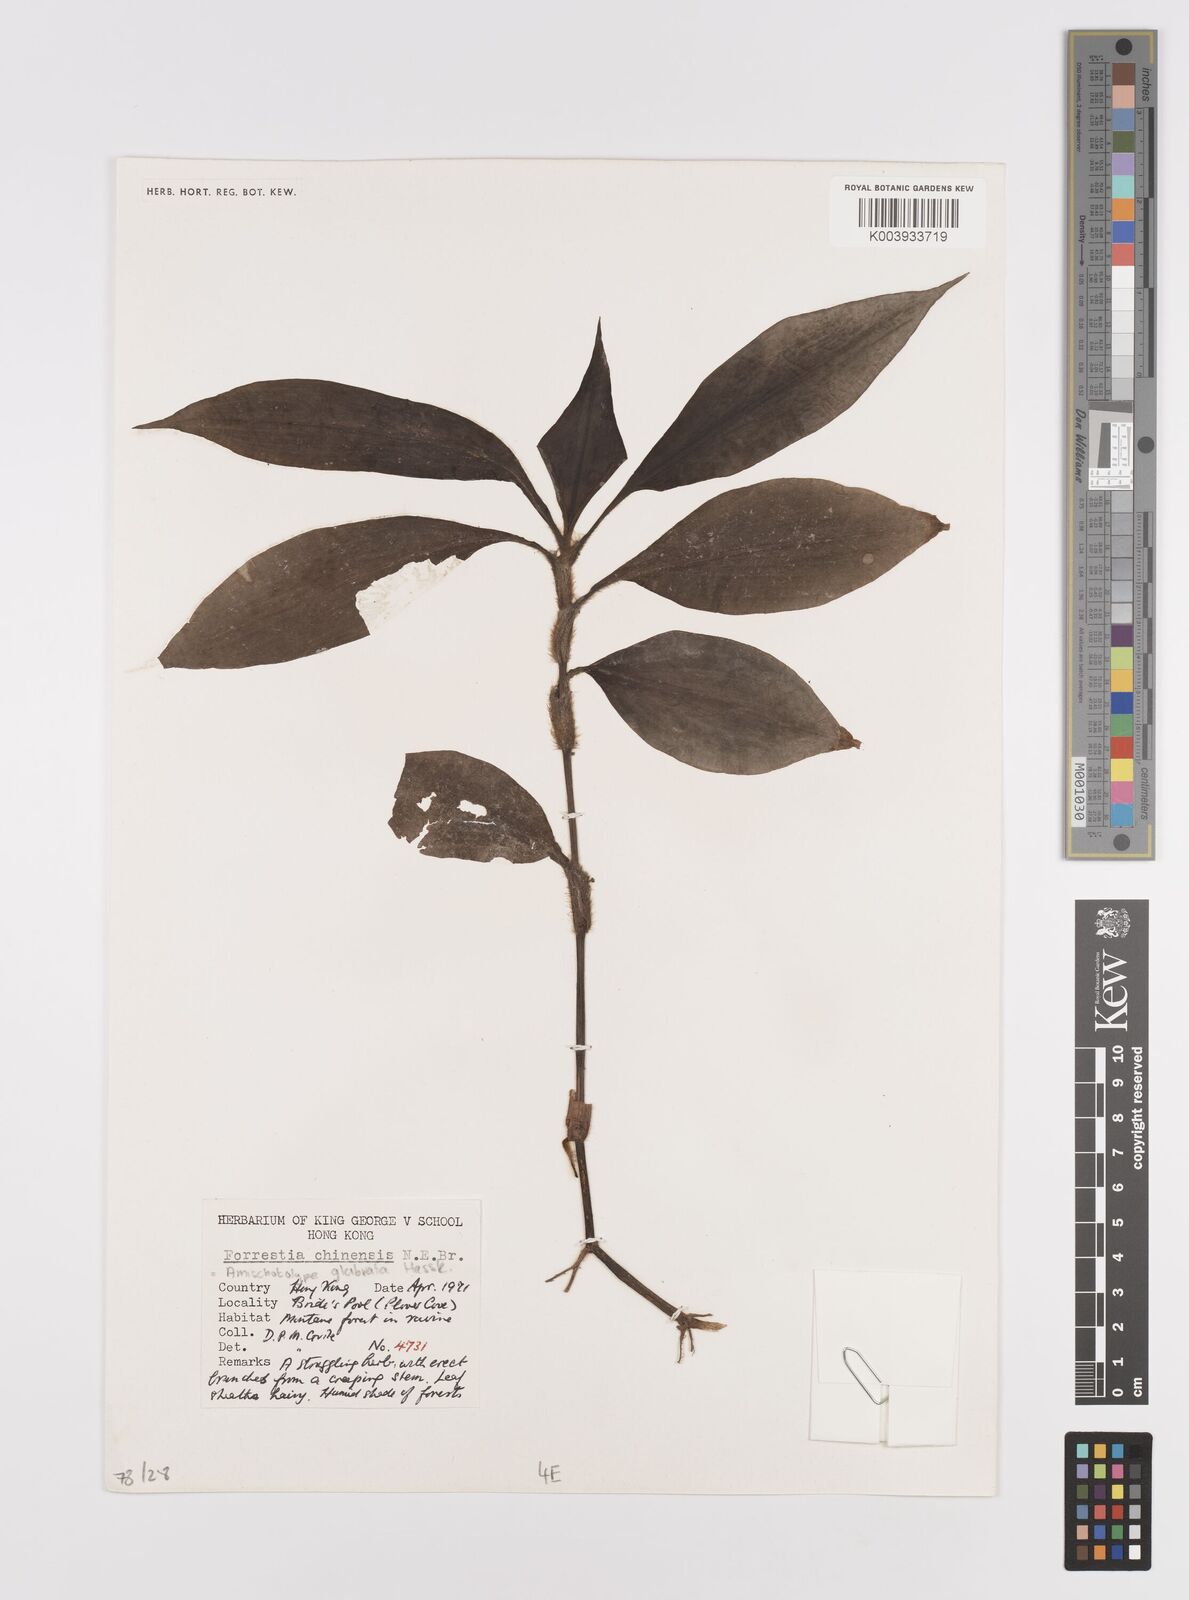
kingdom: Plantae
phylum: Tracheophyta
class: Liliopsida
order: Commelinales
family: Commelinaceae
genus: Amischotolype
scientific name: Amischotolype glabrata
